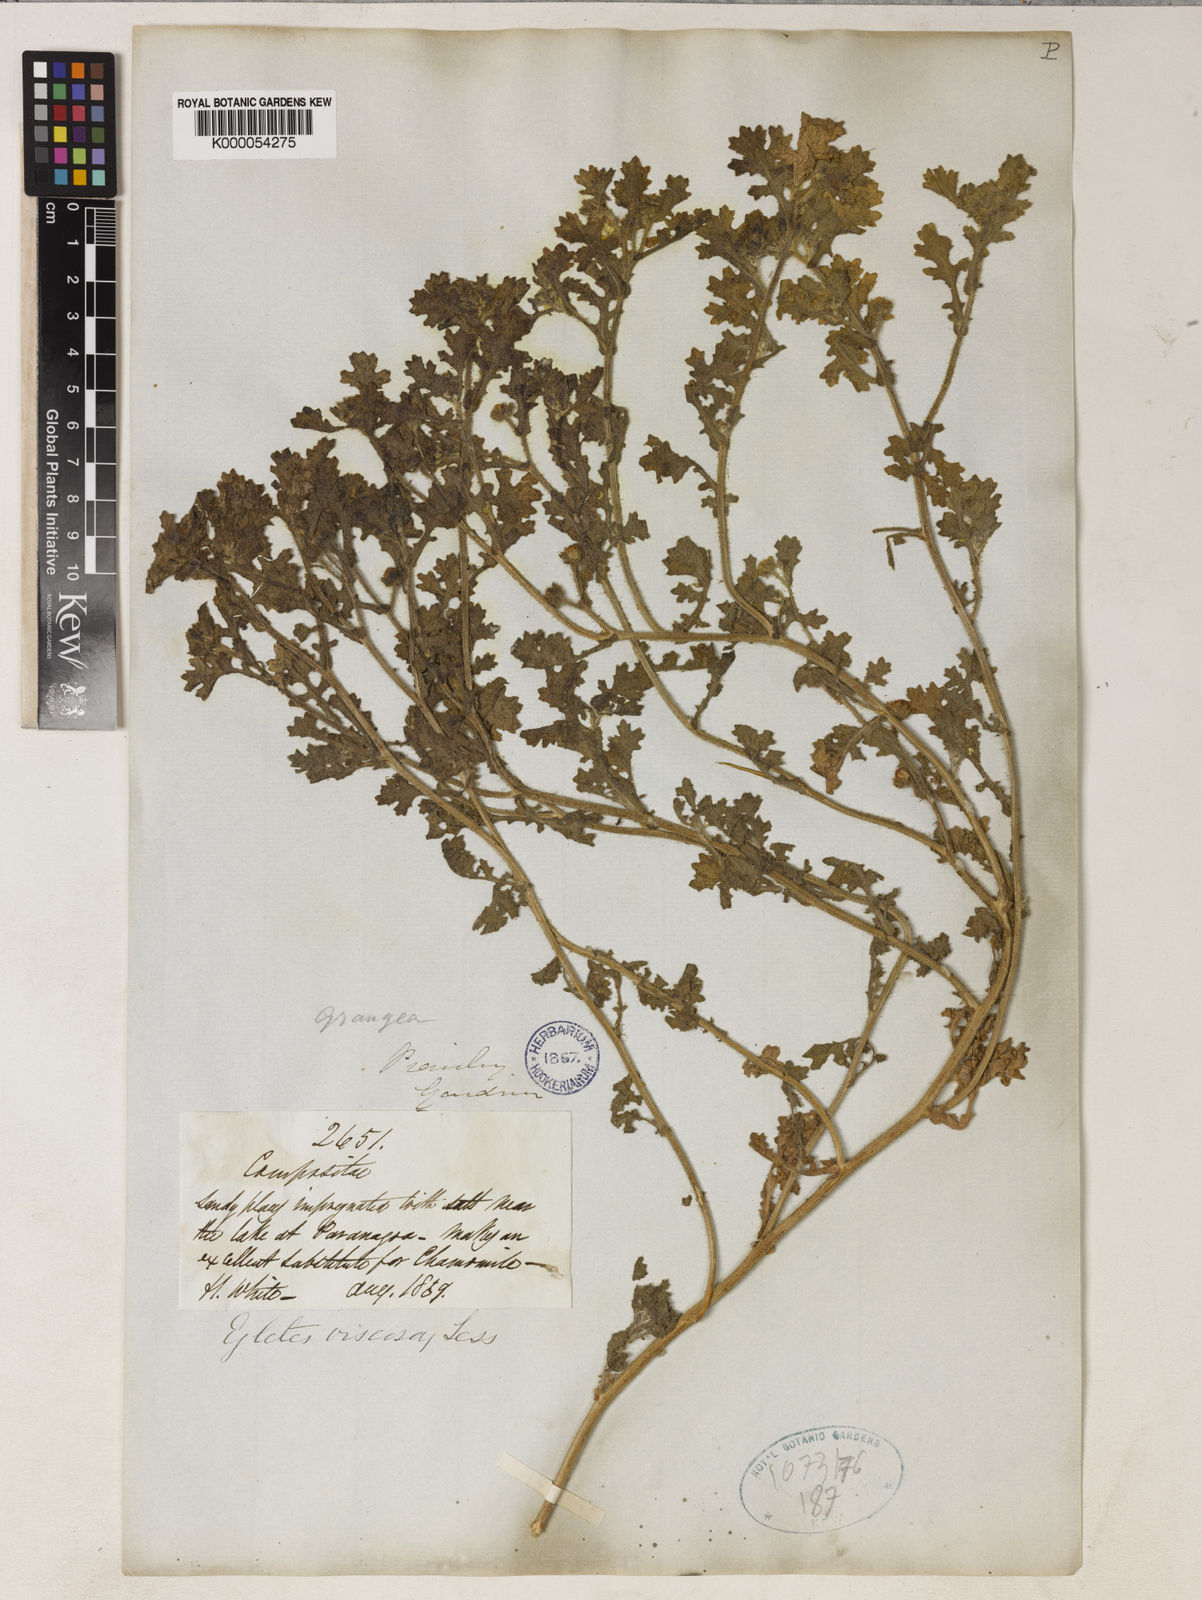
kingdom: Plantae
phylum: Tracheophyta
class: Magnoliopsida
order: Asterales
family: Asteraceae
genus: Egletes
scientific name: Egletes viscosa
